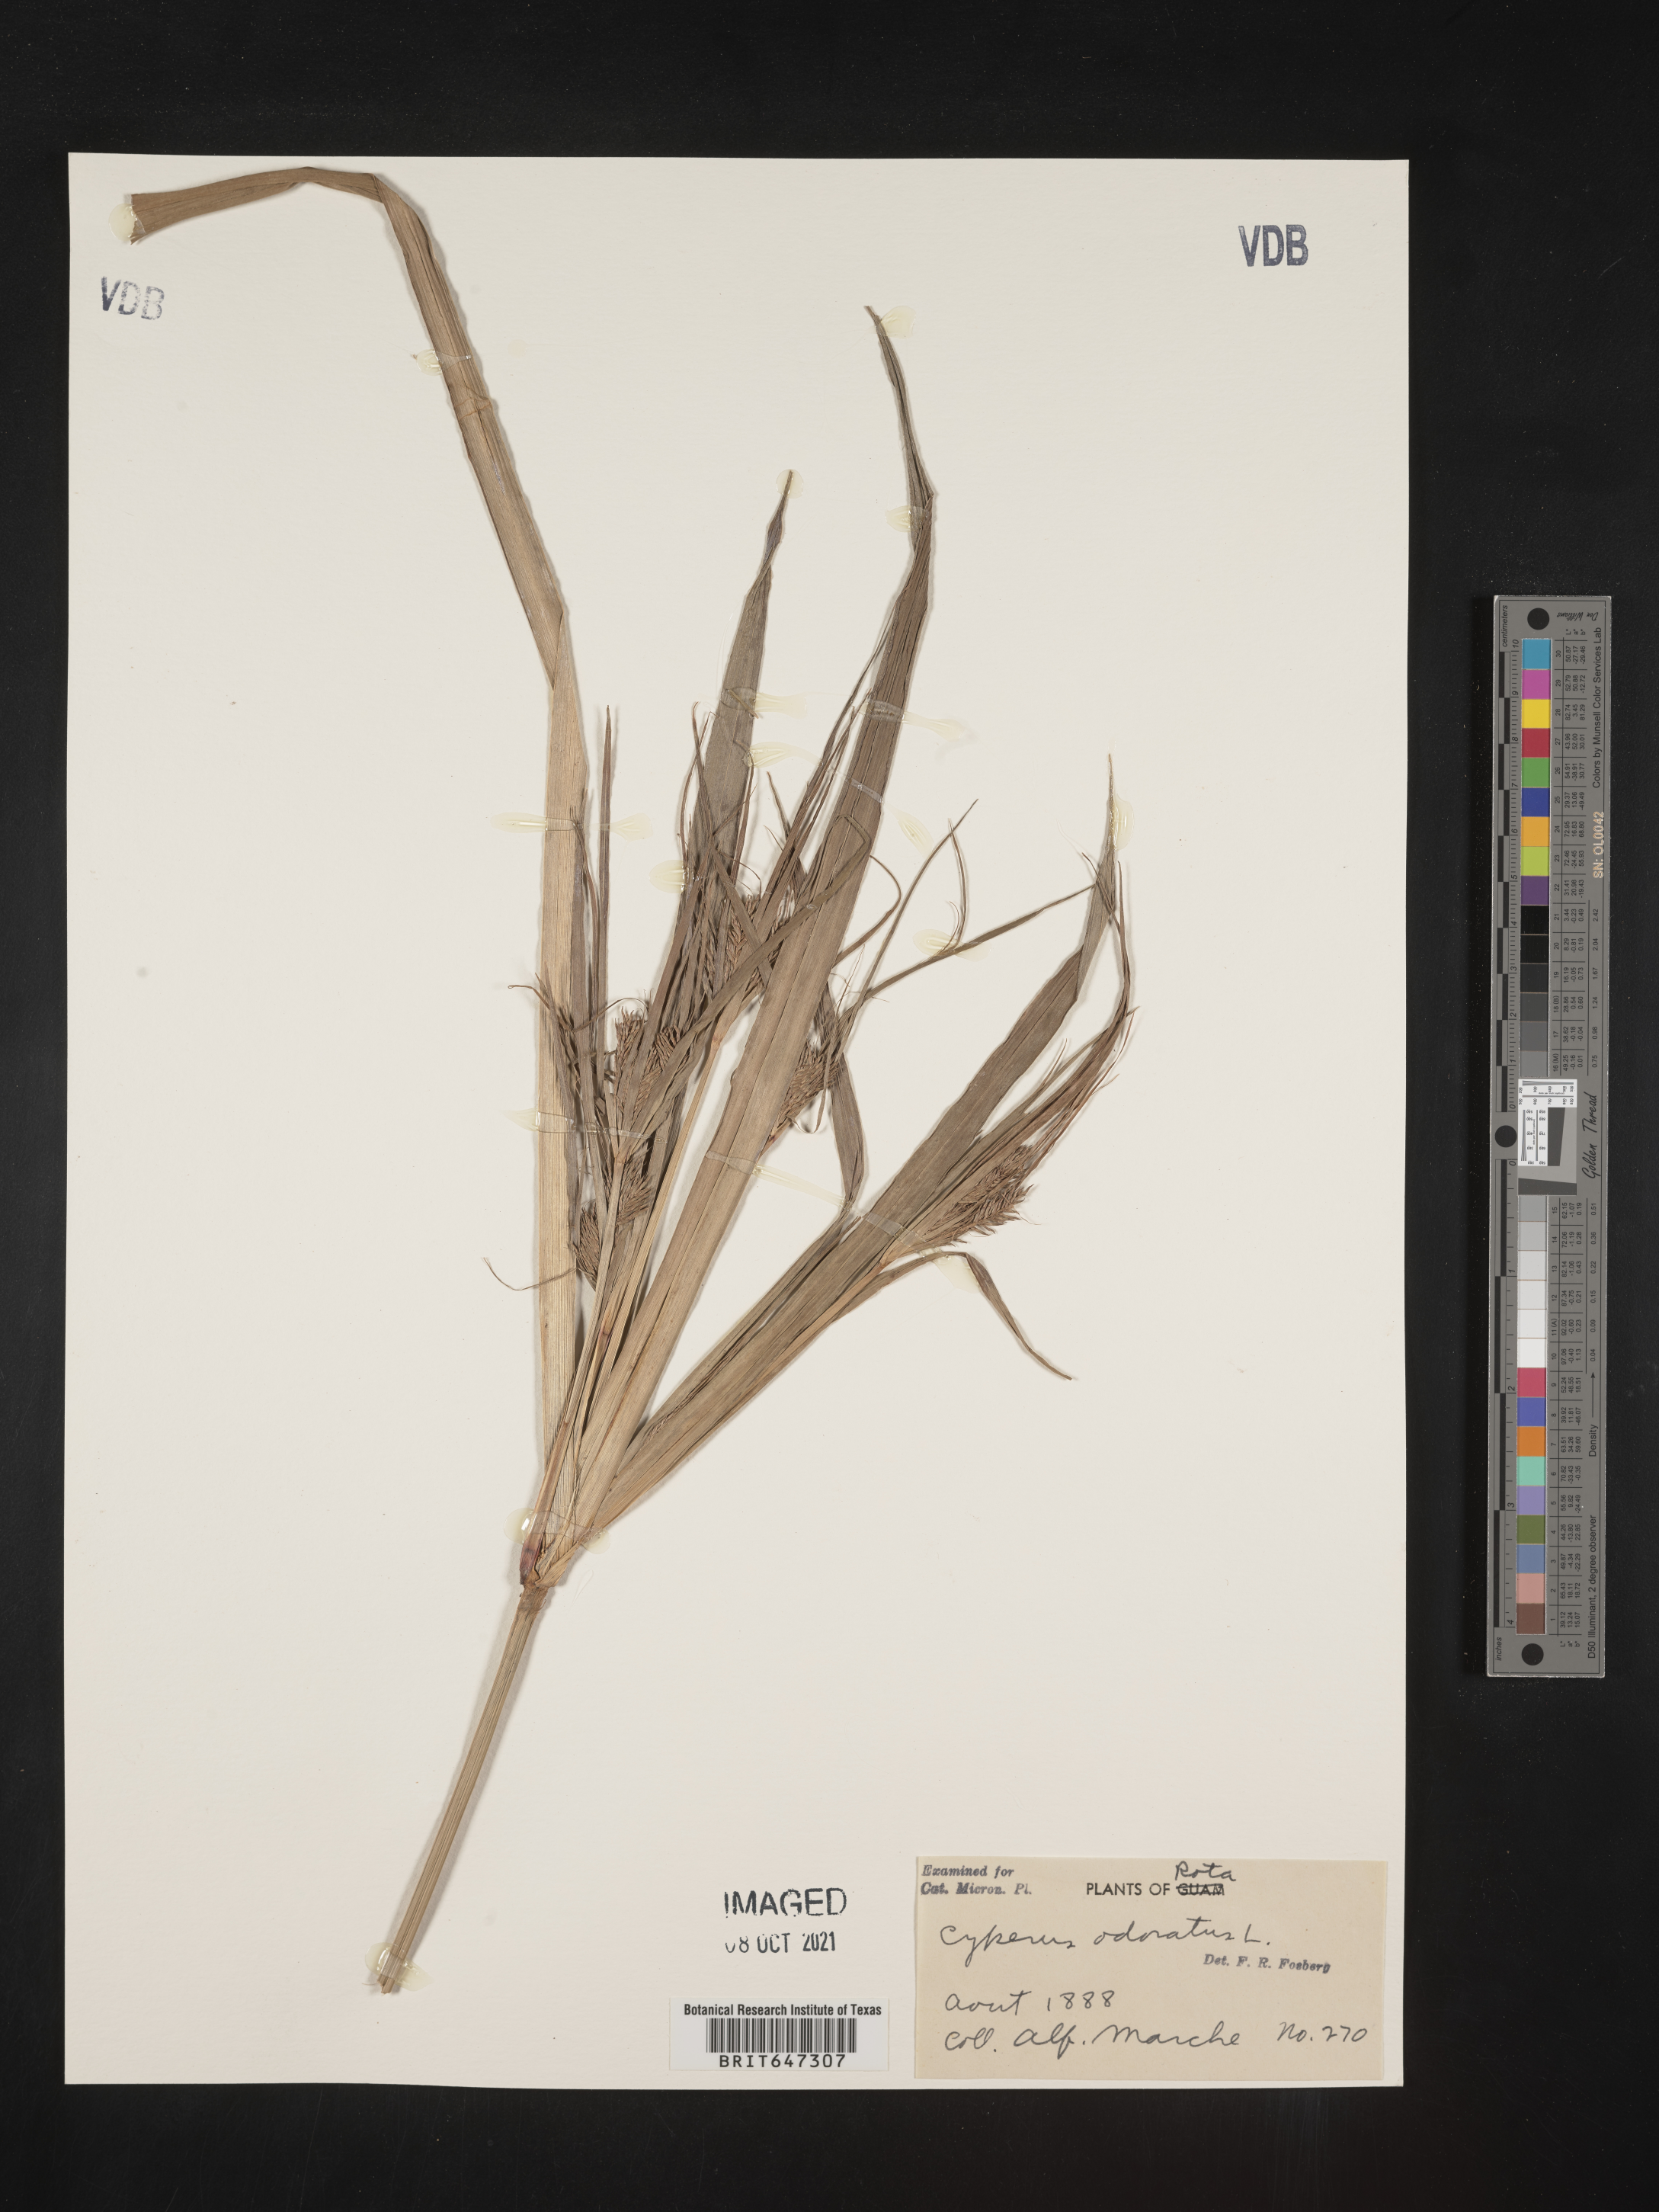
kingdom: Plantae
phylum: Tracheophyta
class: Liliopsida
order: Poales
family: Cyperaceae
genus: Cyperus
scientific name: Cyperus odoratus
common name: Fragrant flatsedge
